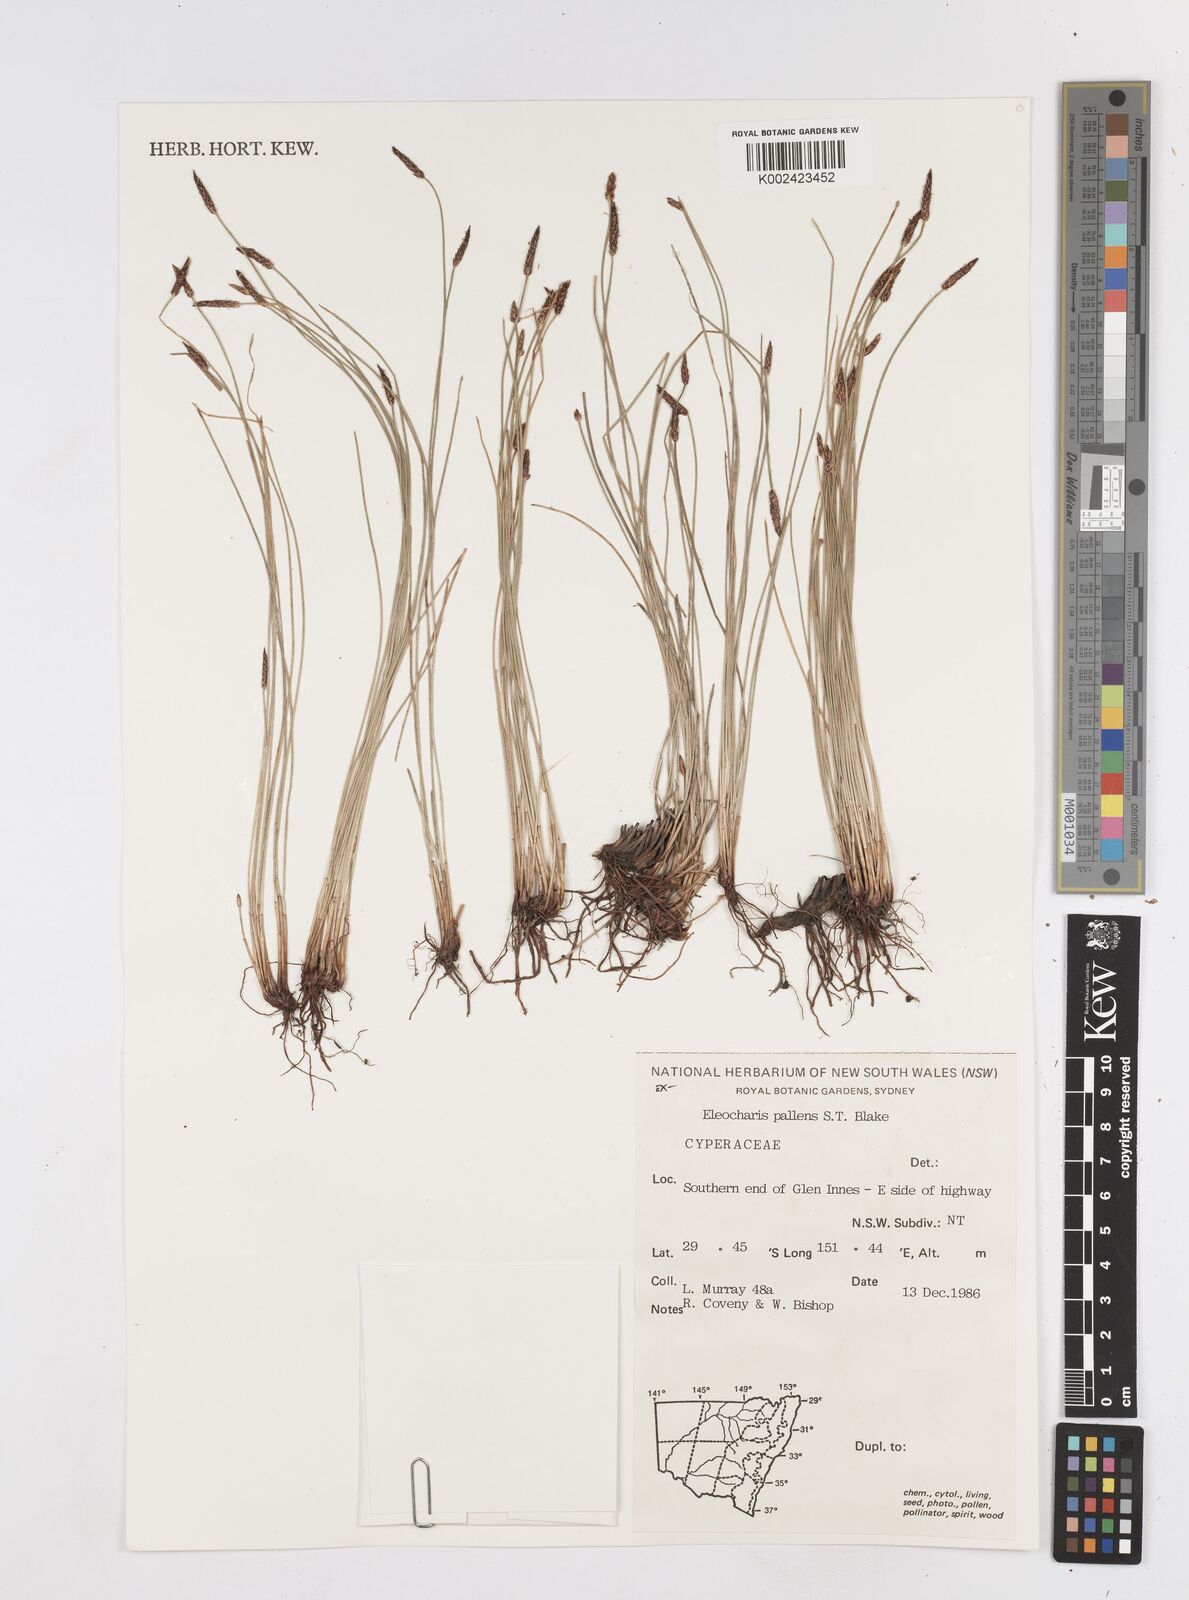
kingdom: Plantae
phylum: Tracheophyta
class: Liliopsida
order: Poales
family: Cyperaceae
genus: Eleocharis
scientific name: Eleocharis acuta
